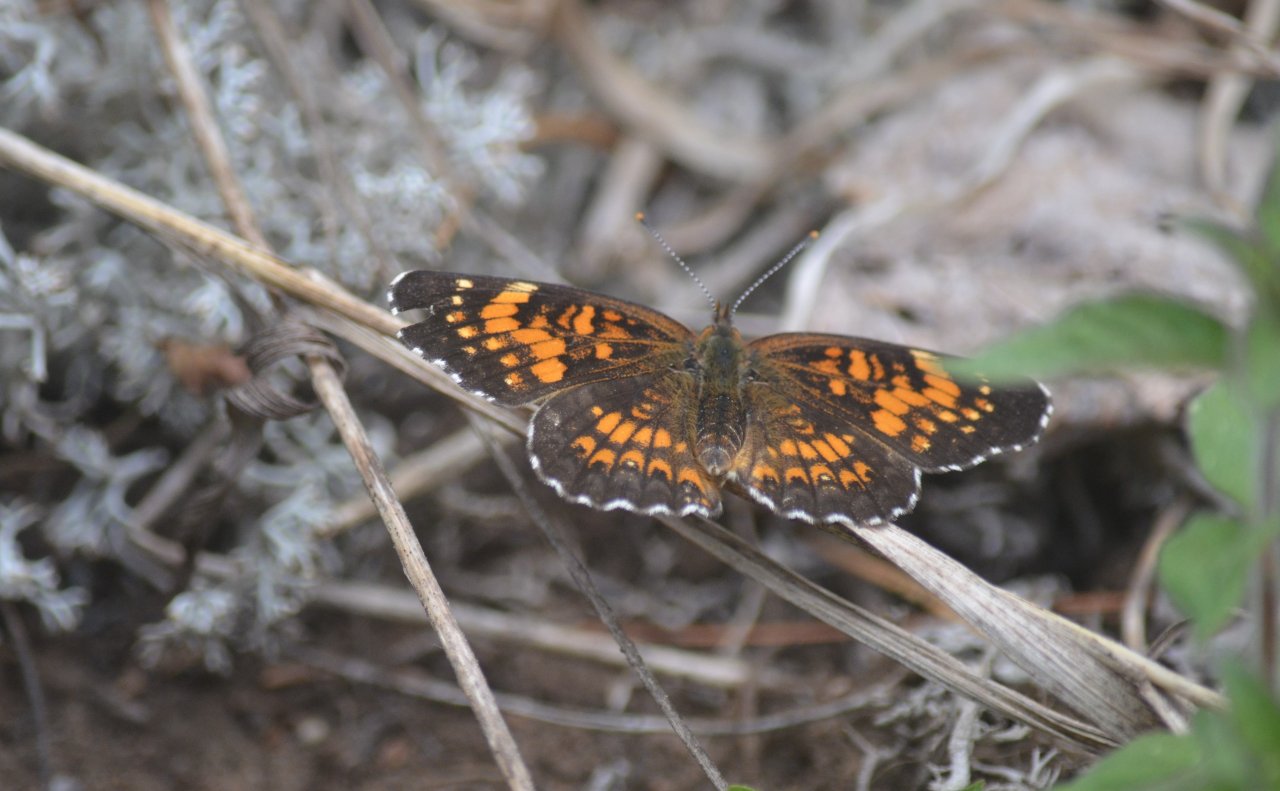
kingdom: Animalia
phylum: Arthropoda
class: Insecta
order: Lepidoptera
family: Nymphalidae
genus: Chlosyne
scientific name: Chlosyne harrisii
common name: Harris's Checkerspot
